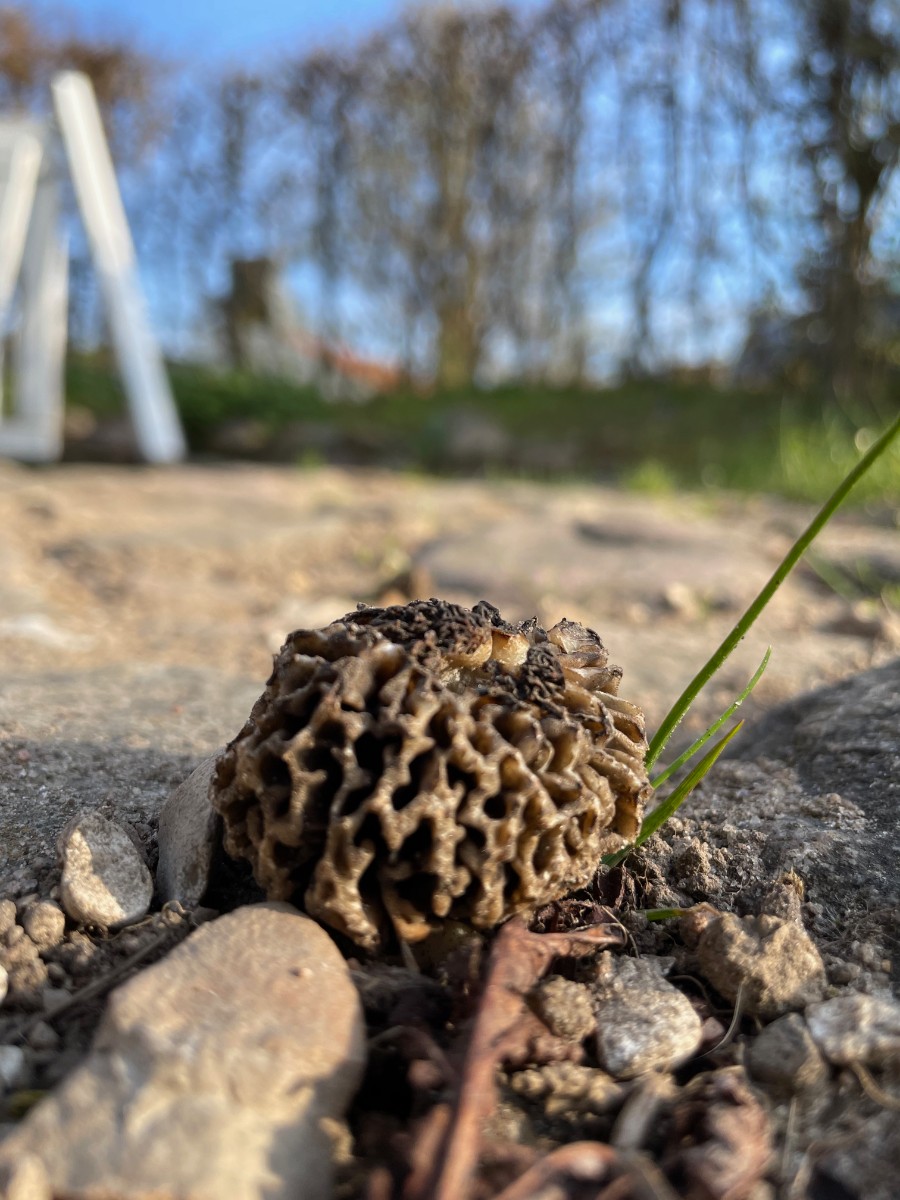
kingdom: Fungi
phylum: Ascomycota
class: Pezizomycetes
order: Pezizales
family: Morchellaceae
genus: Morchella
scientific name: Morchella esculenta
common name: almindelig morkel
